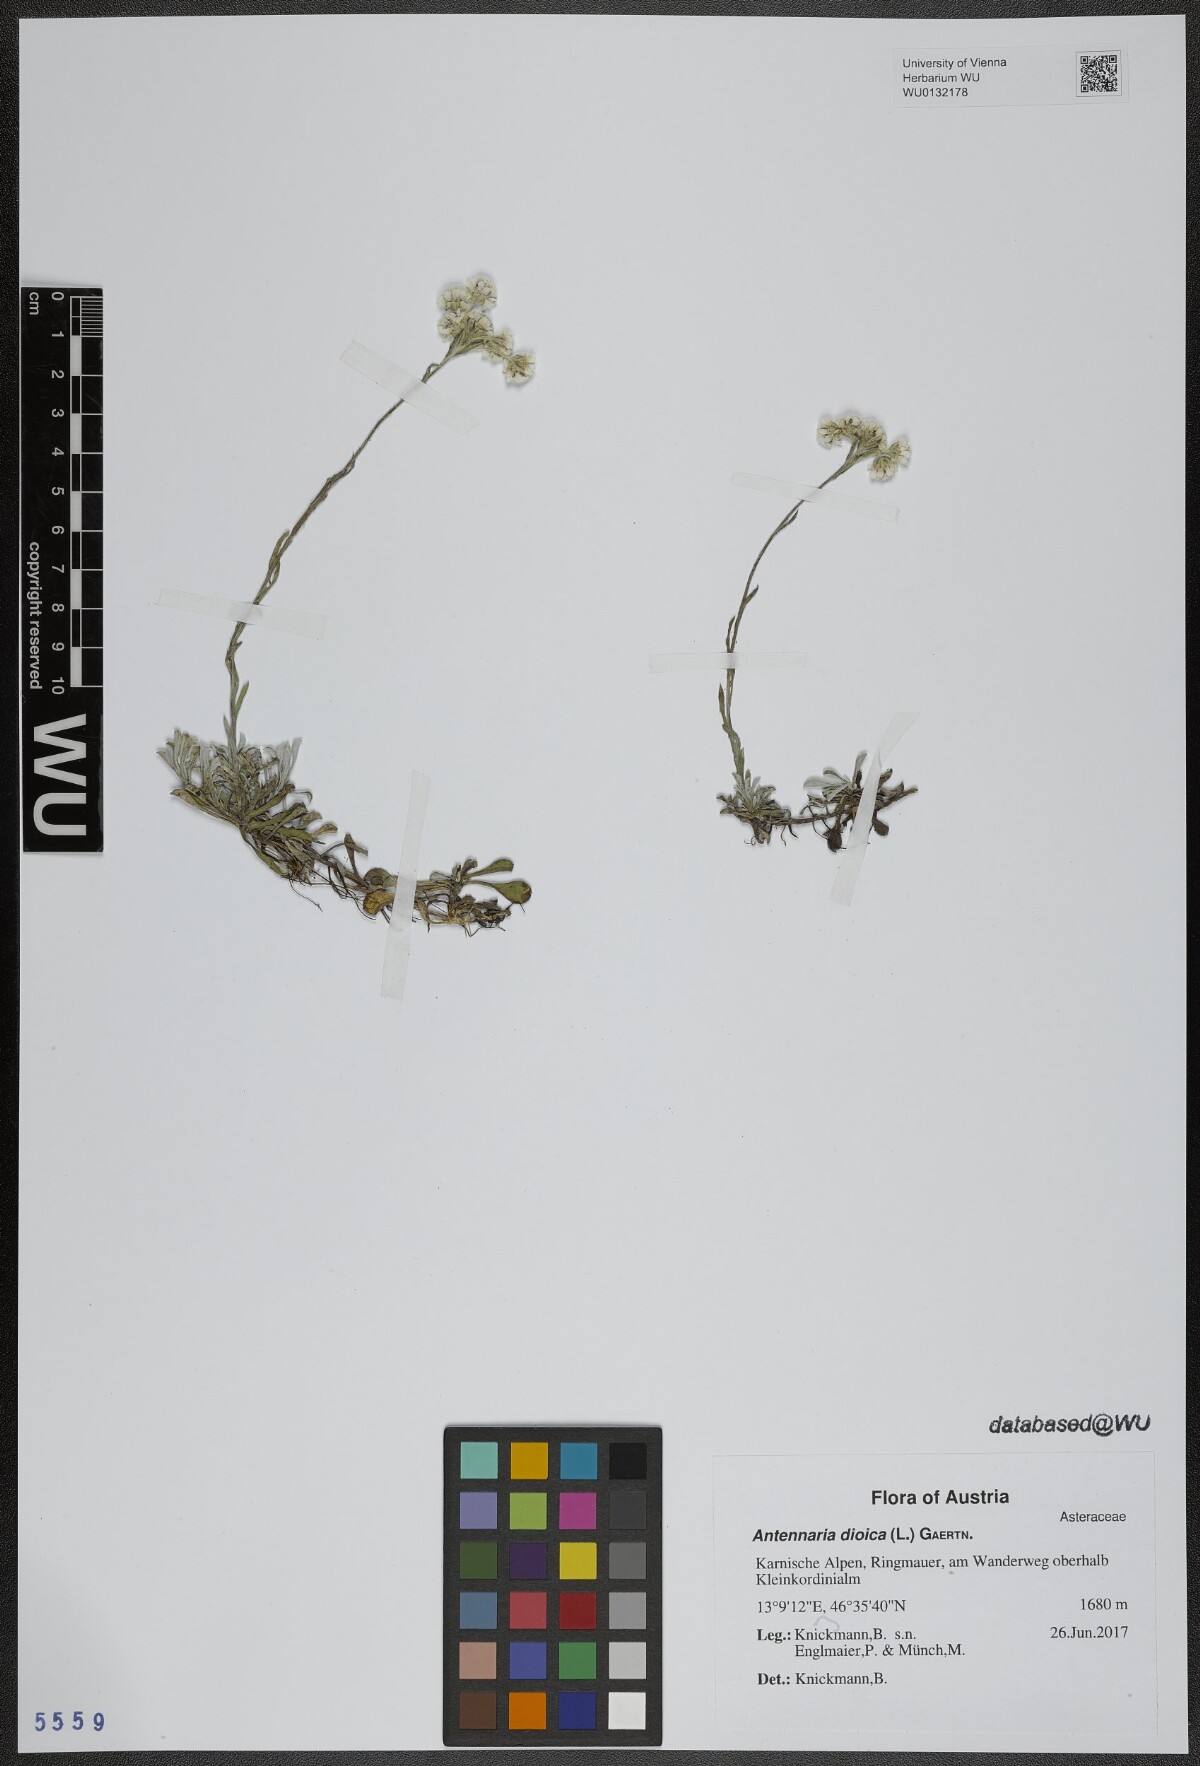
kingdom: Plantae
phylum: Tracheophyta
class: Magnoliopsida
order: Asterales
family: Asteraceae
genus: Antennaria
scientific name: Antennaria dioica
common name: Mountain everlasting
